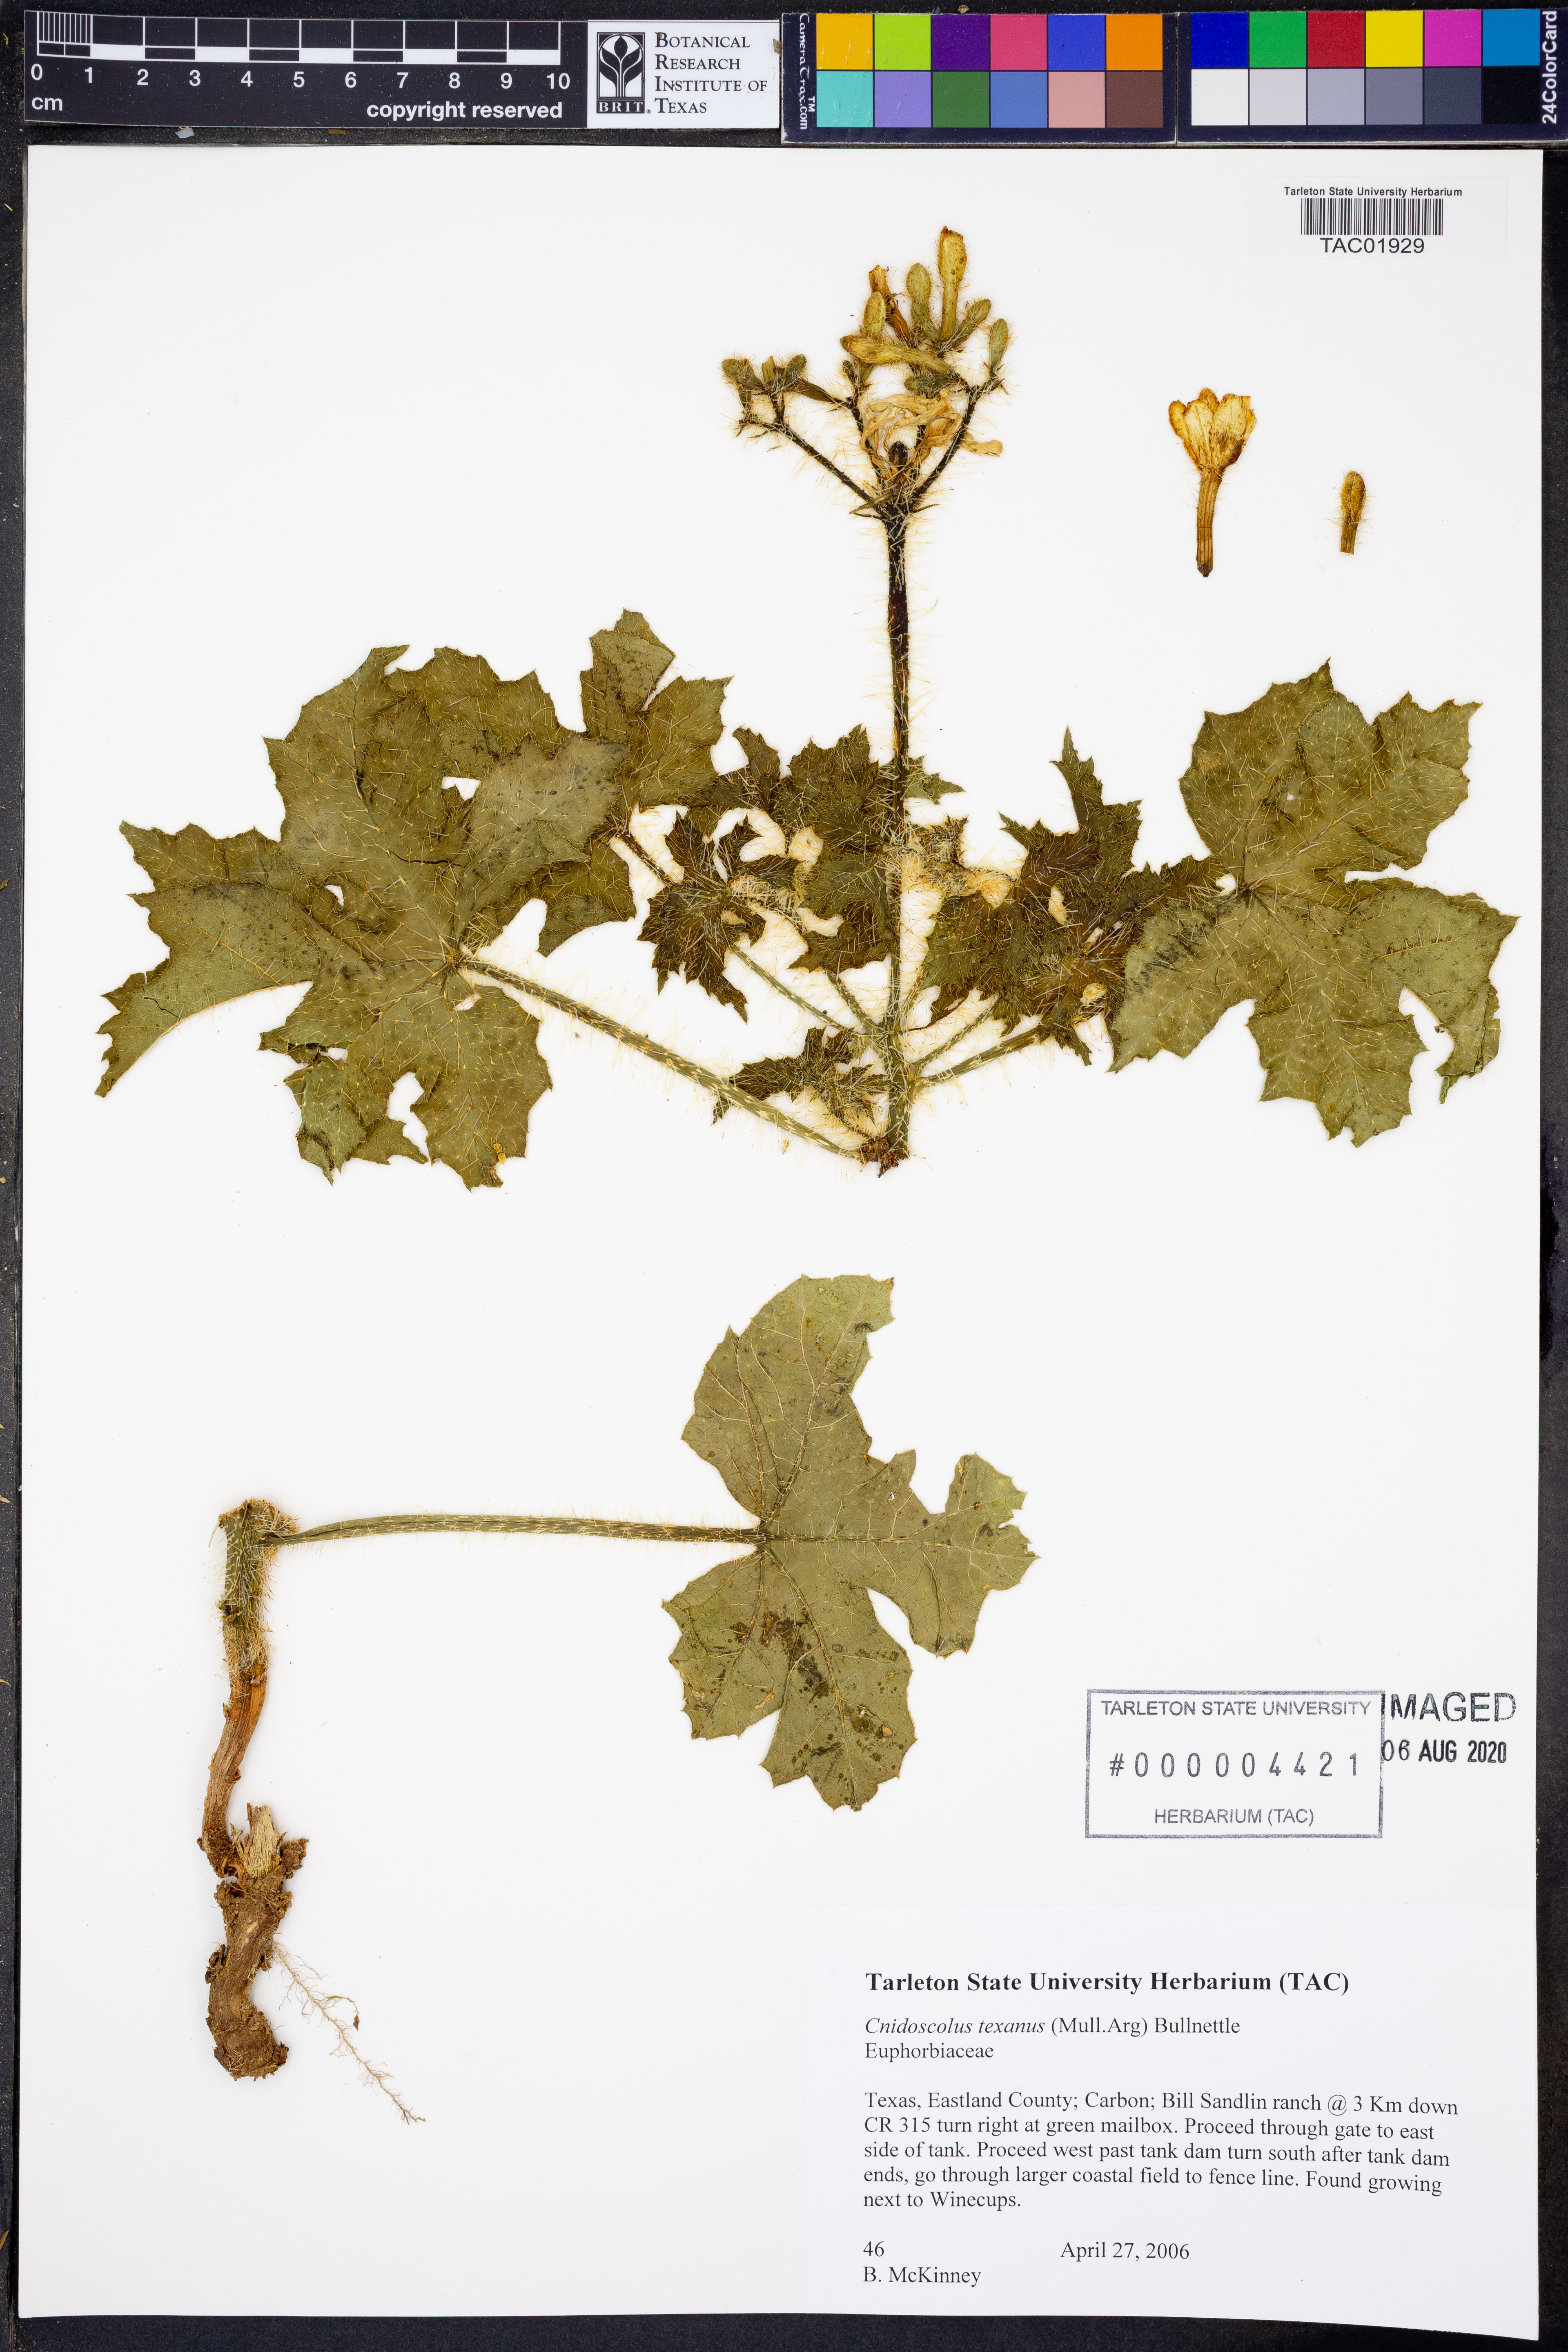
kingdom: Plantae
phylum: Tracheophyta
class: Magnoliopsida
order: Malpighiales
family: Euphorbiaceae
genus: Cnidoscolus
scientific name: Cnidoscolus texanus
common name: Texas bull-nettle
